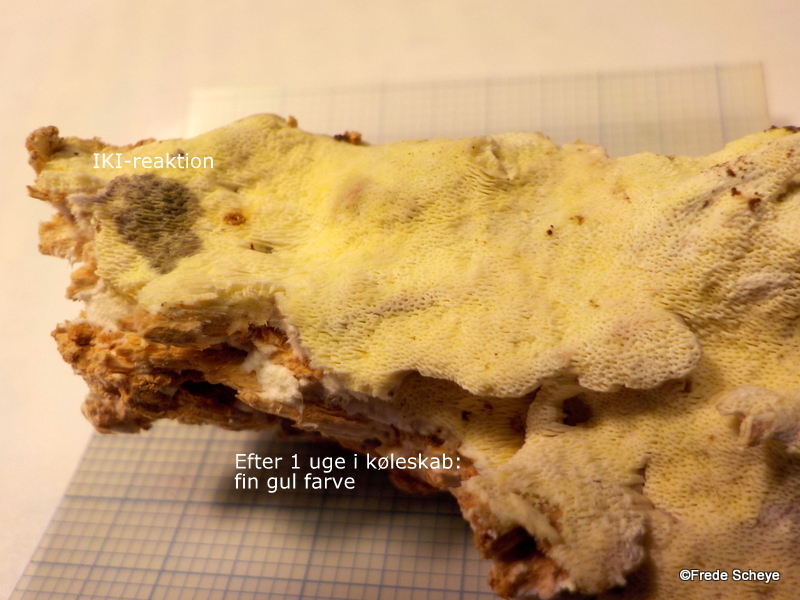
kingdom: Fungi
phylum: Basidiomycota
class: Agaricomycetes
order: Polyporales
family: Fomitopsidaceae
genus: Daedalea
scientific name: Daedalea xantha
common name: gul sejporesvamp
